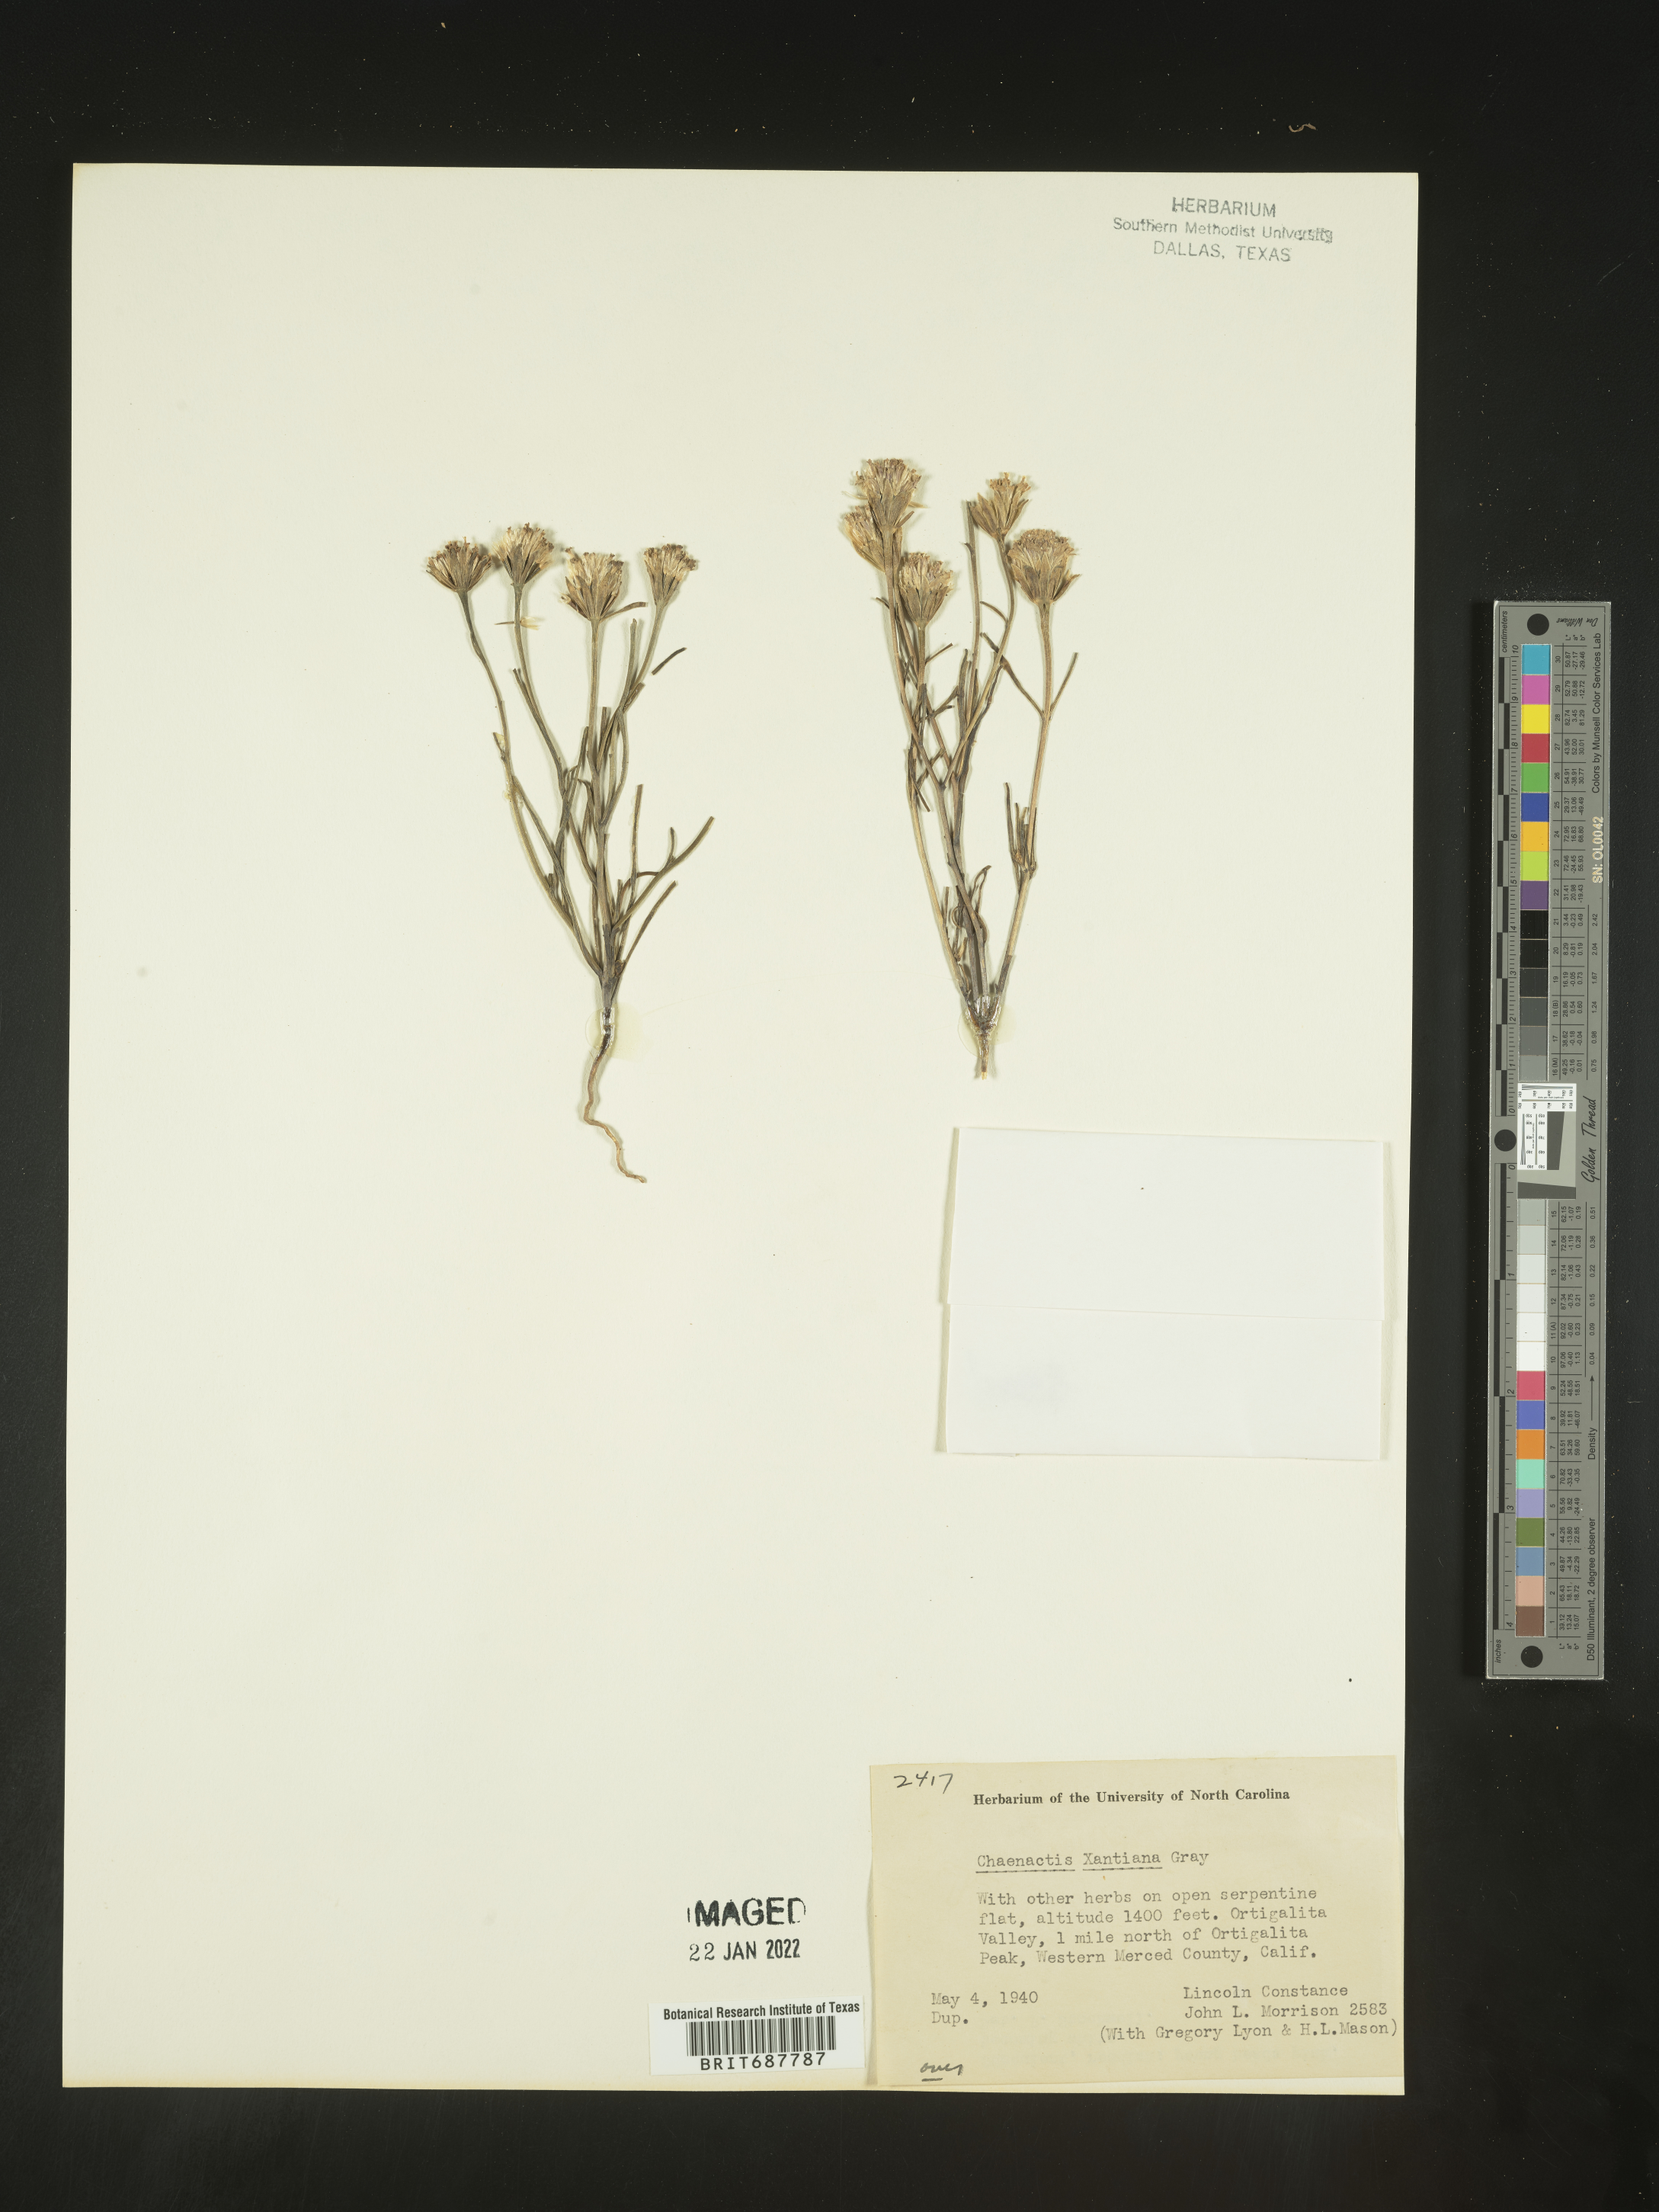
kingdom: Plantae
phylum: Tracheophyta
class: Magnoliopsida
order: Asterales
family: Asteraceae
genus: Chaenactis
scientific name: Chaenactis xantiana
